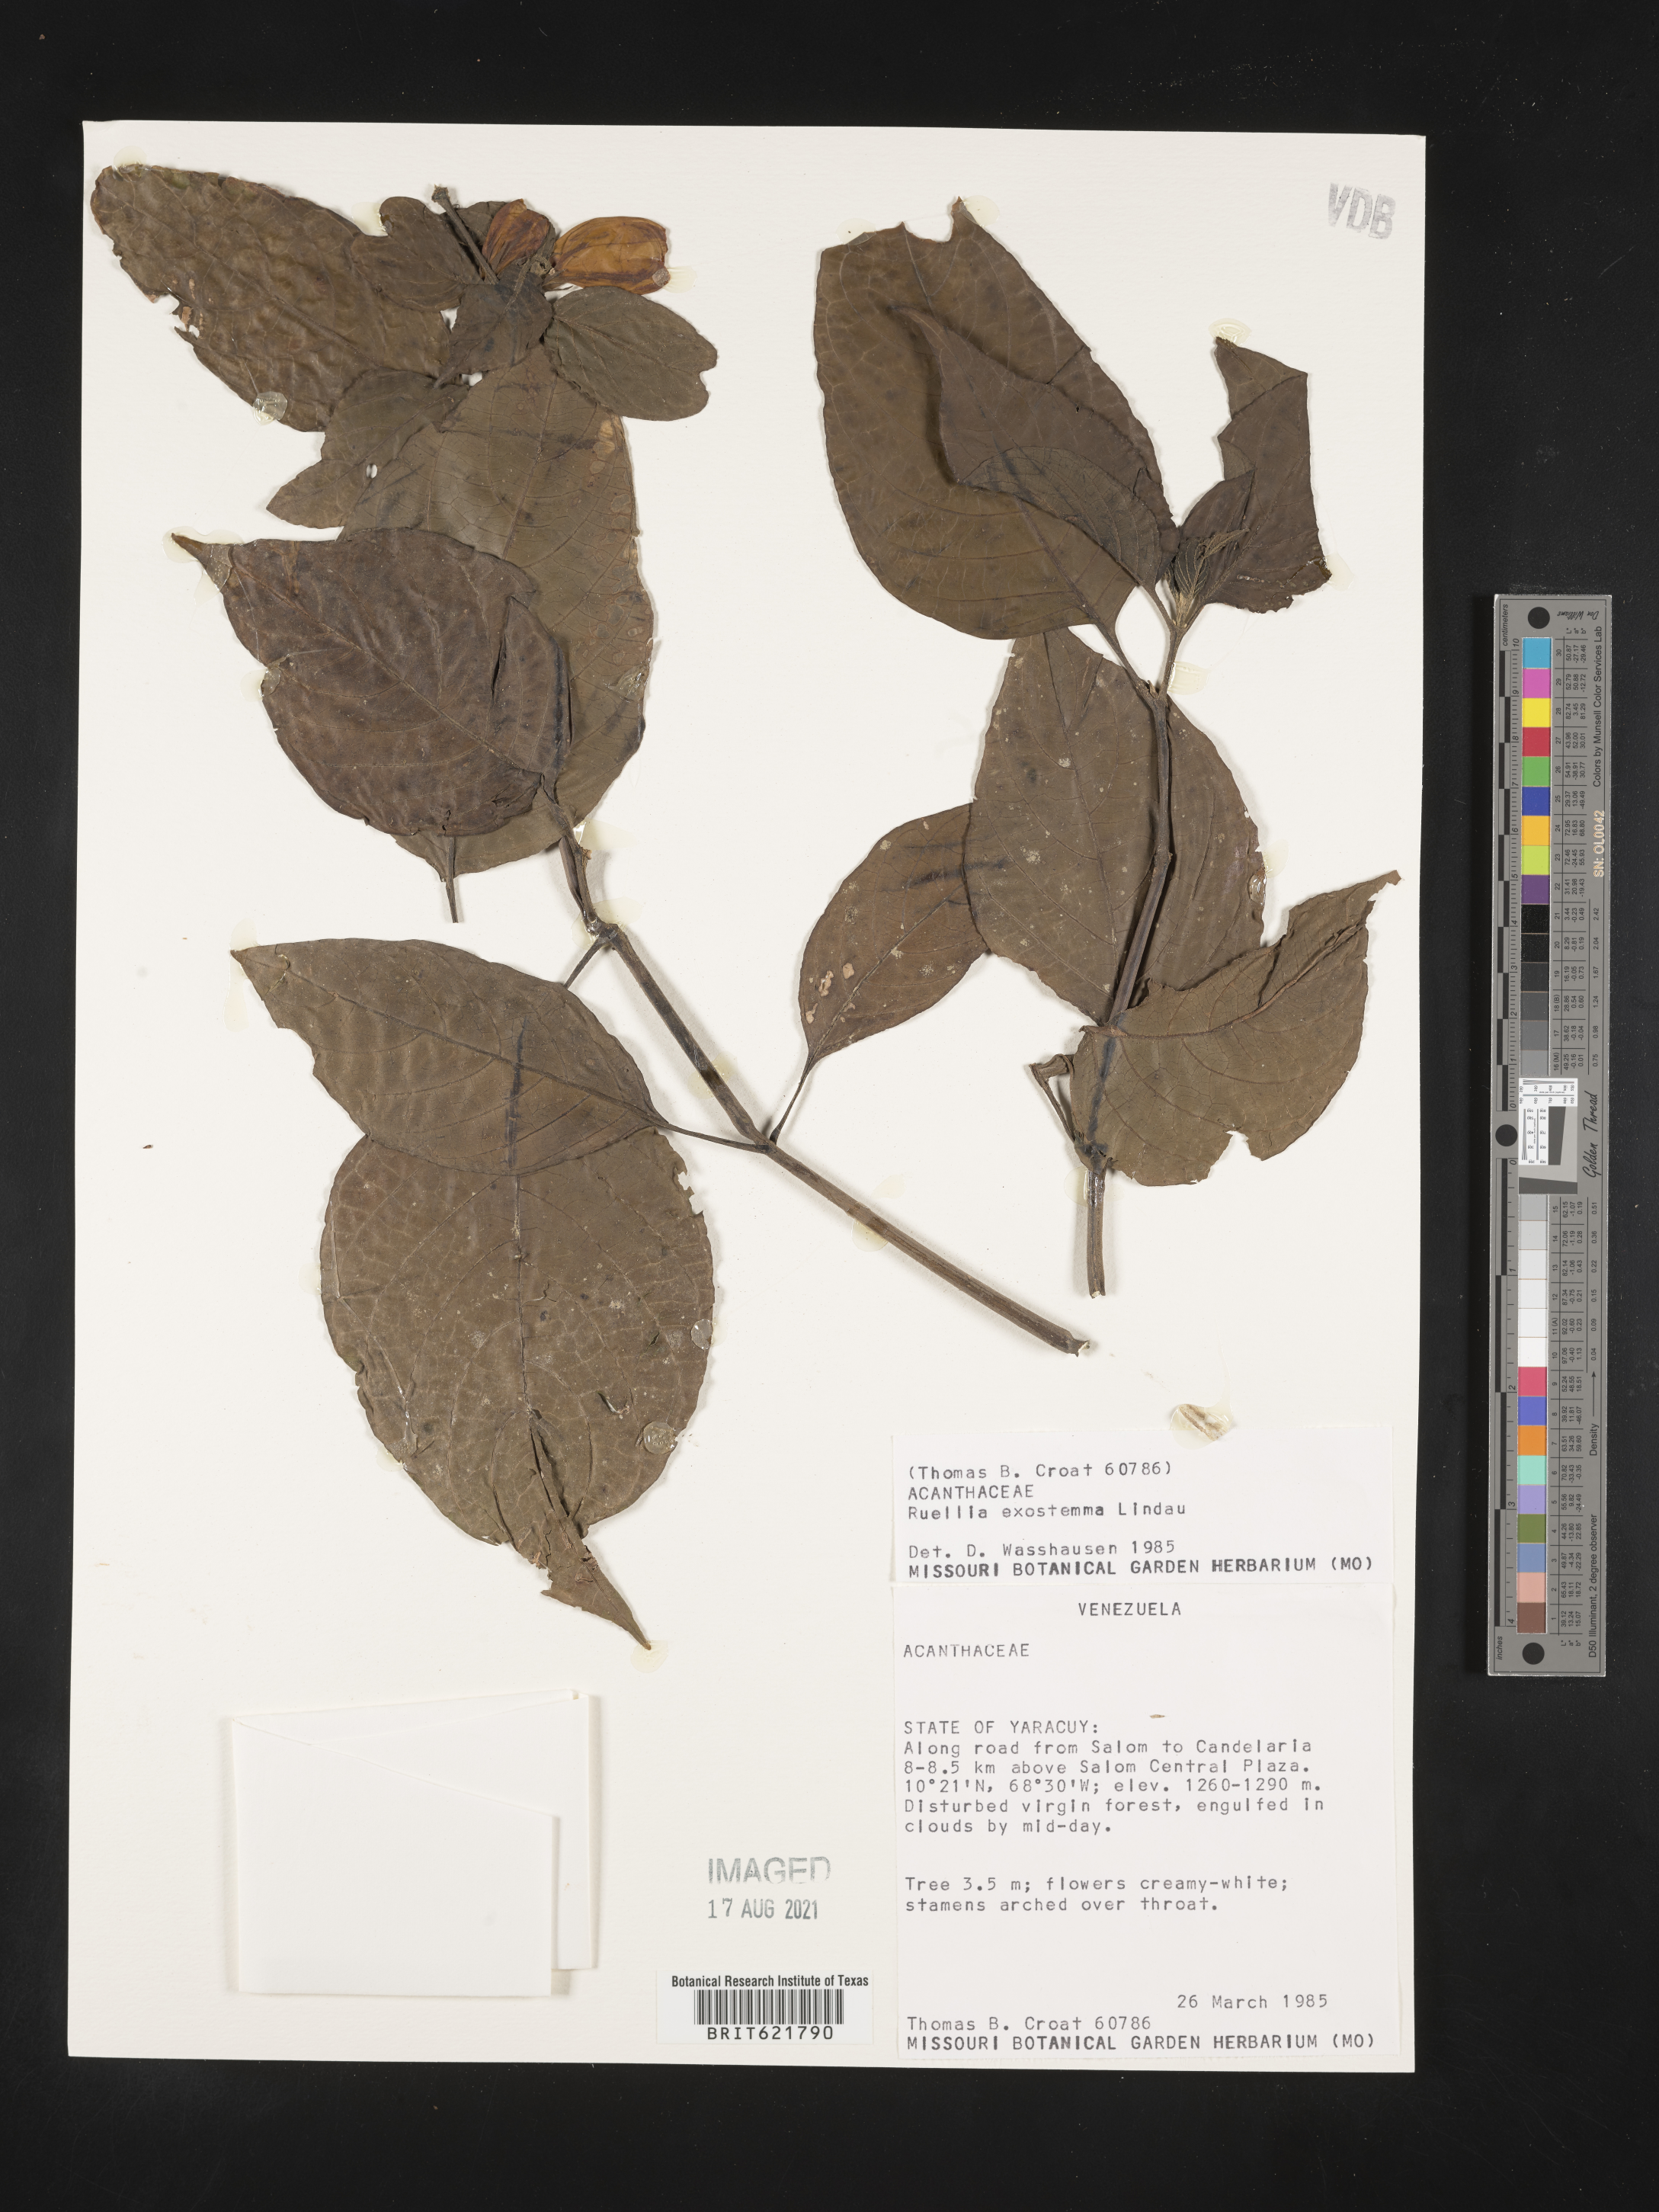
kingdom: Plantae
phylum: Tracheophyta
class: Magnoliopsida
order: Lamiales
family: Acanthaceae
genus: Ruellia
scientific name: Ruellia exostemma
